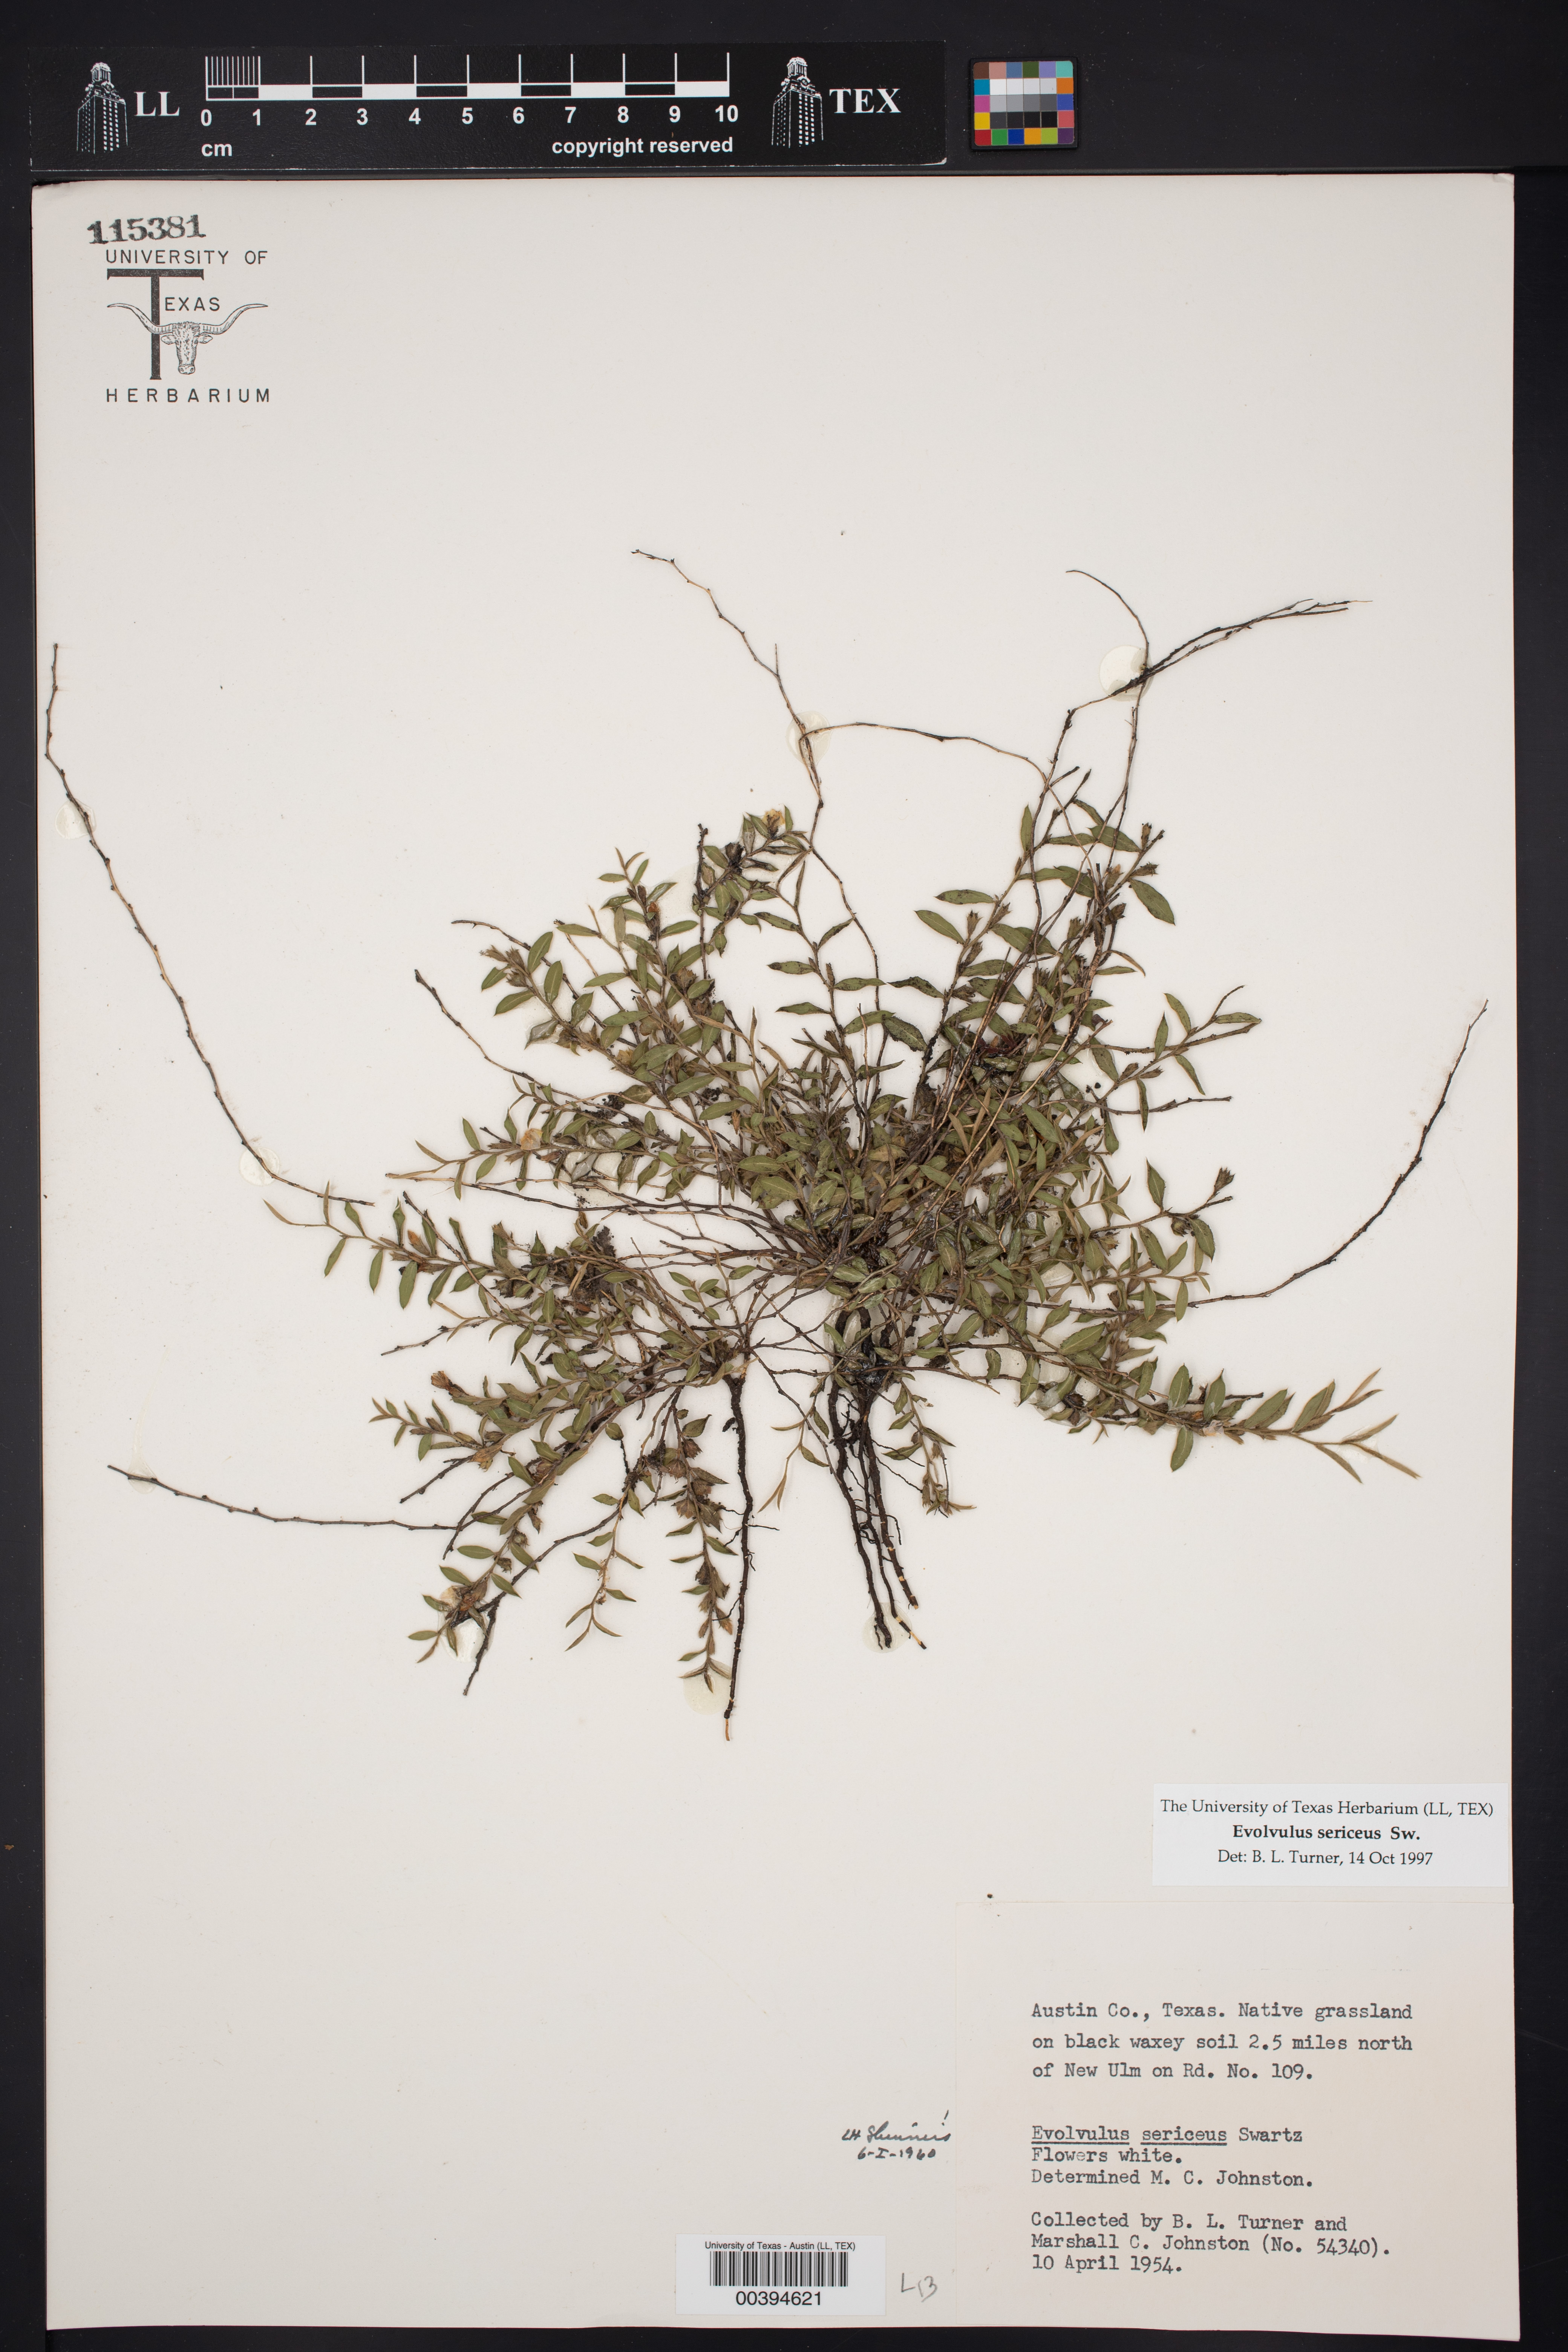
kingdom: Plantae
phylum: Tracheophyta
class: Magnoliopsida
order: Solanales
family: Convolvulaceae
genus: Evolvulus
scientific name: Evolvulus sericeus
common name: Blue dots
